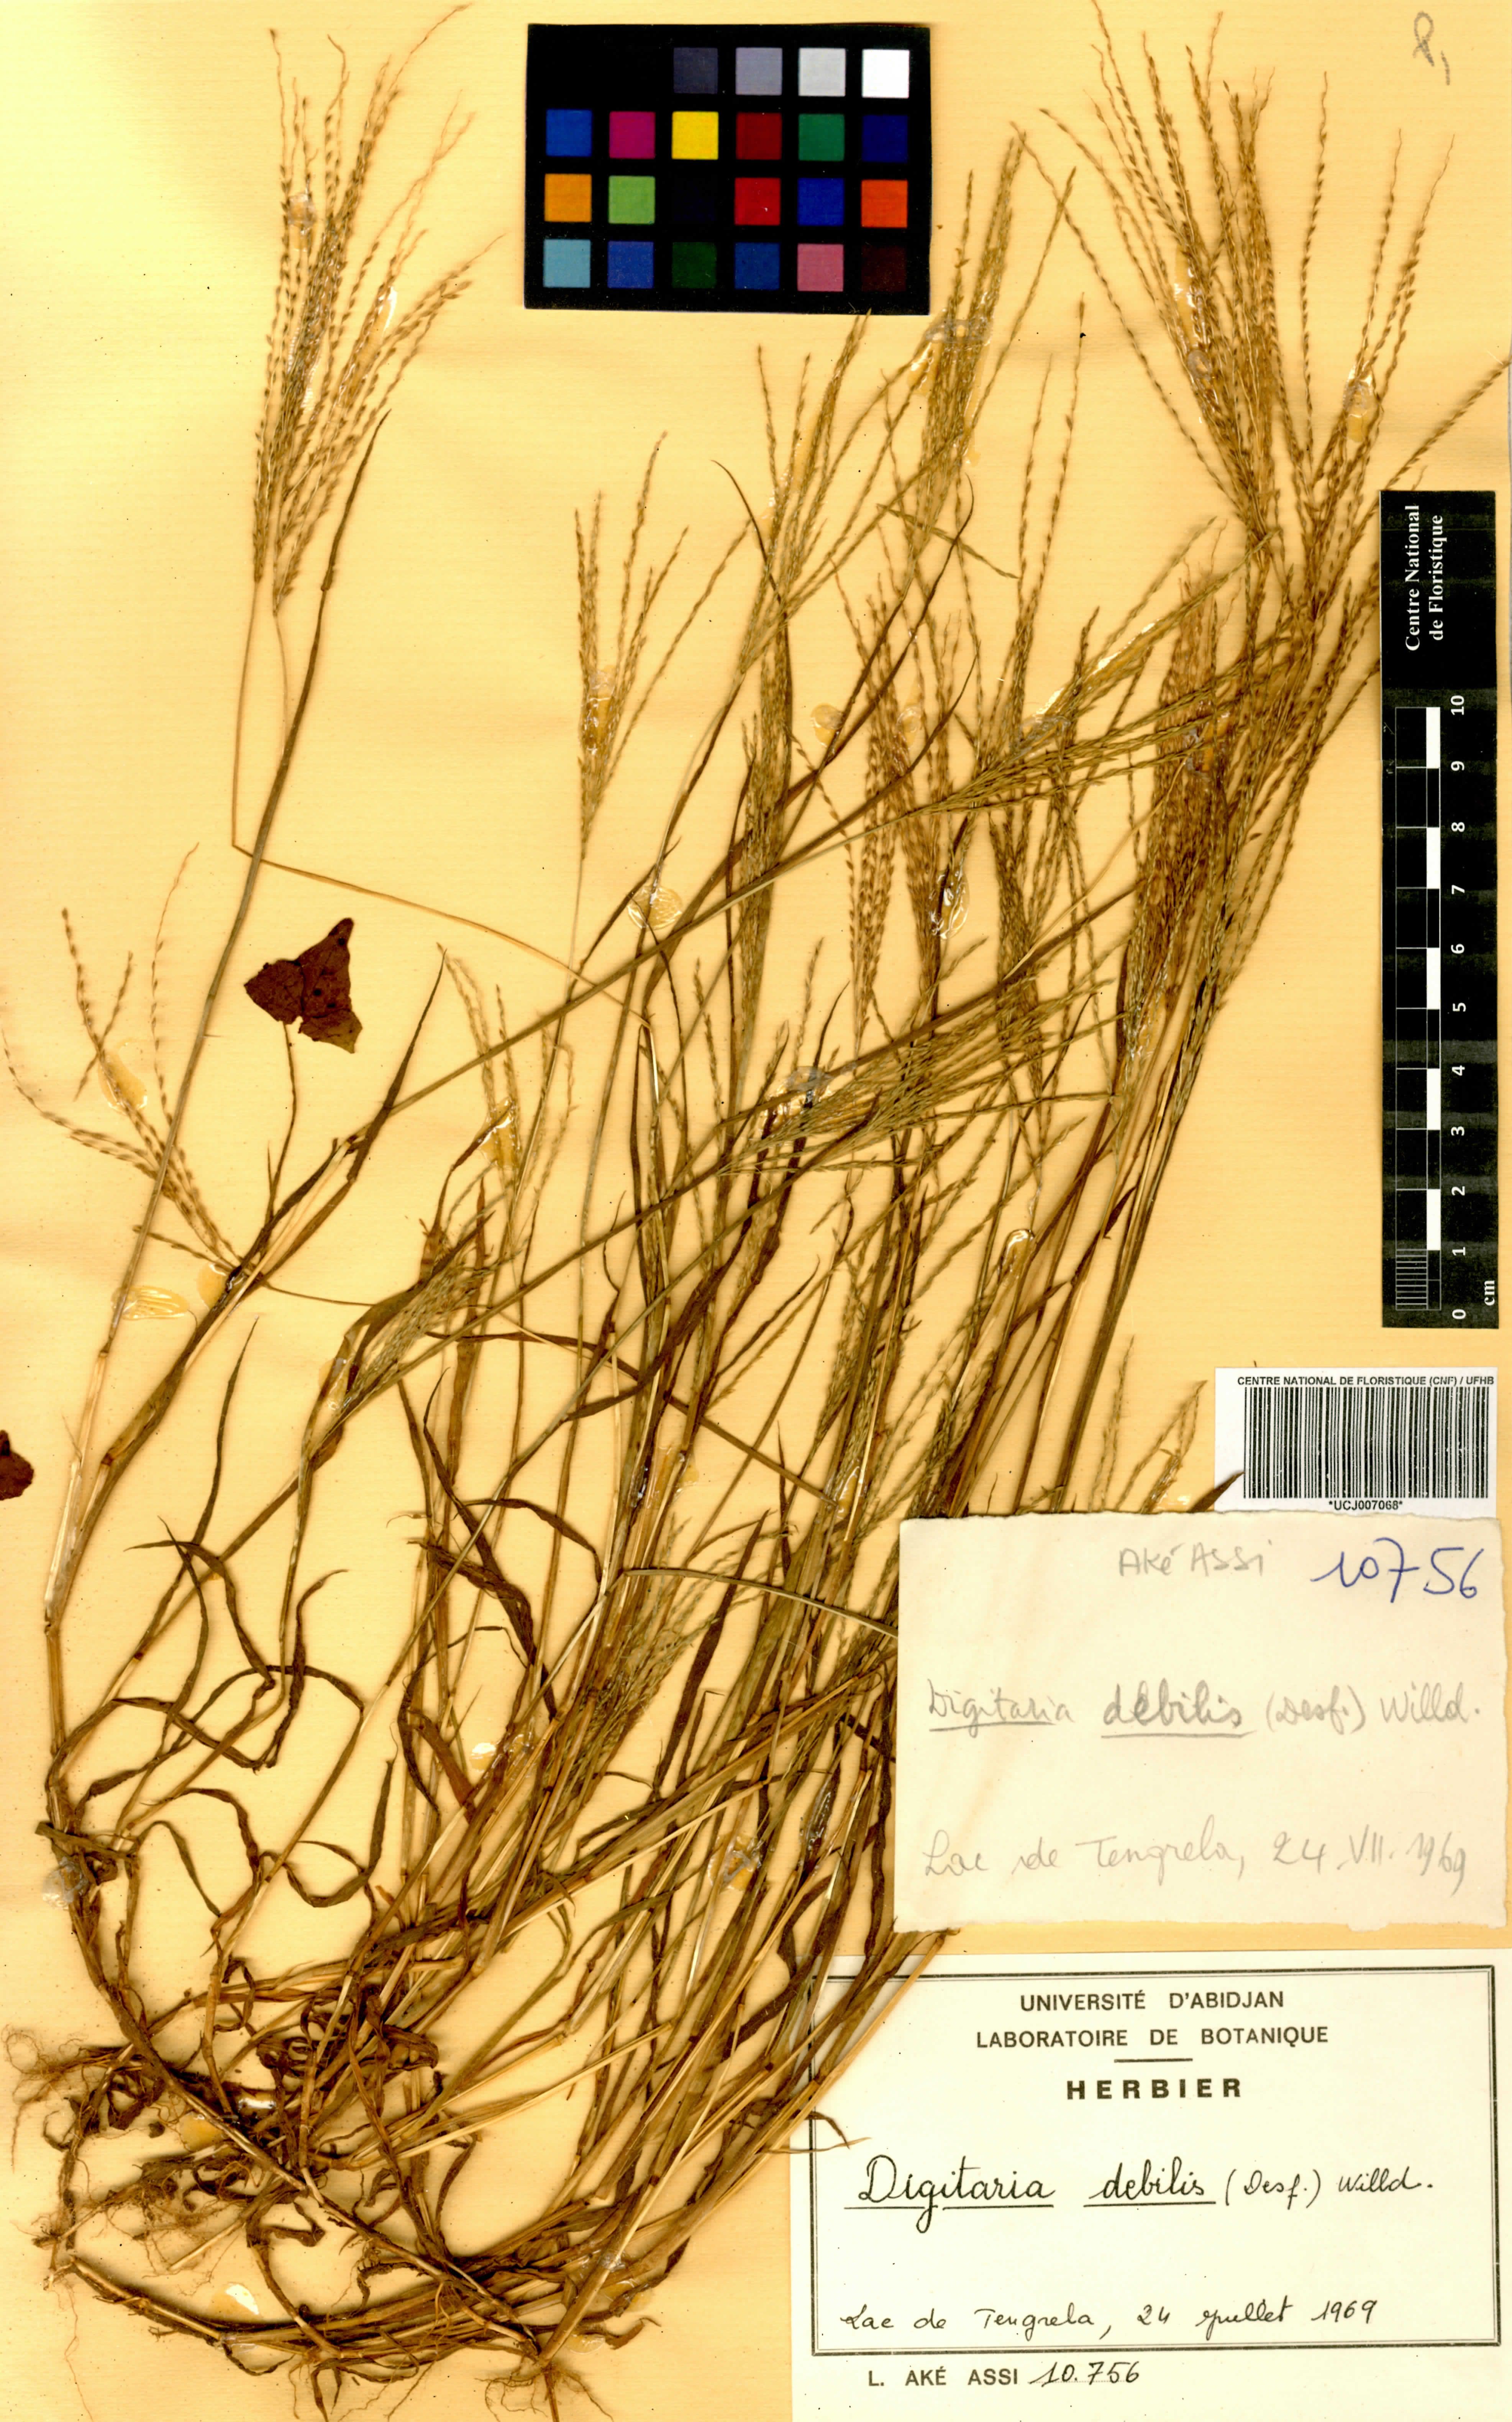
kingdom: Plantae
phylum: Tracheophyta
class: Liliopsida
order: Poales
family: Poaceae
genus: Digitaria
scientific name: Digitaria debilis
